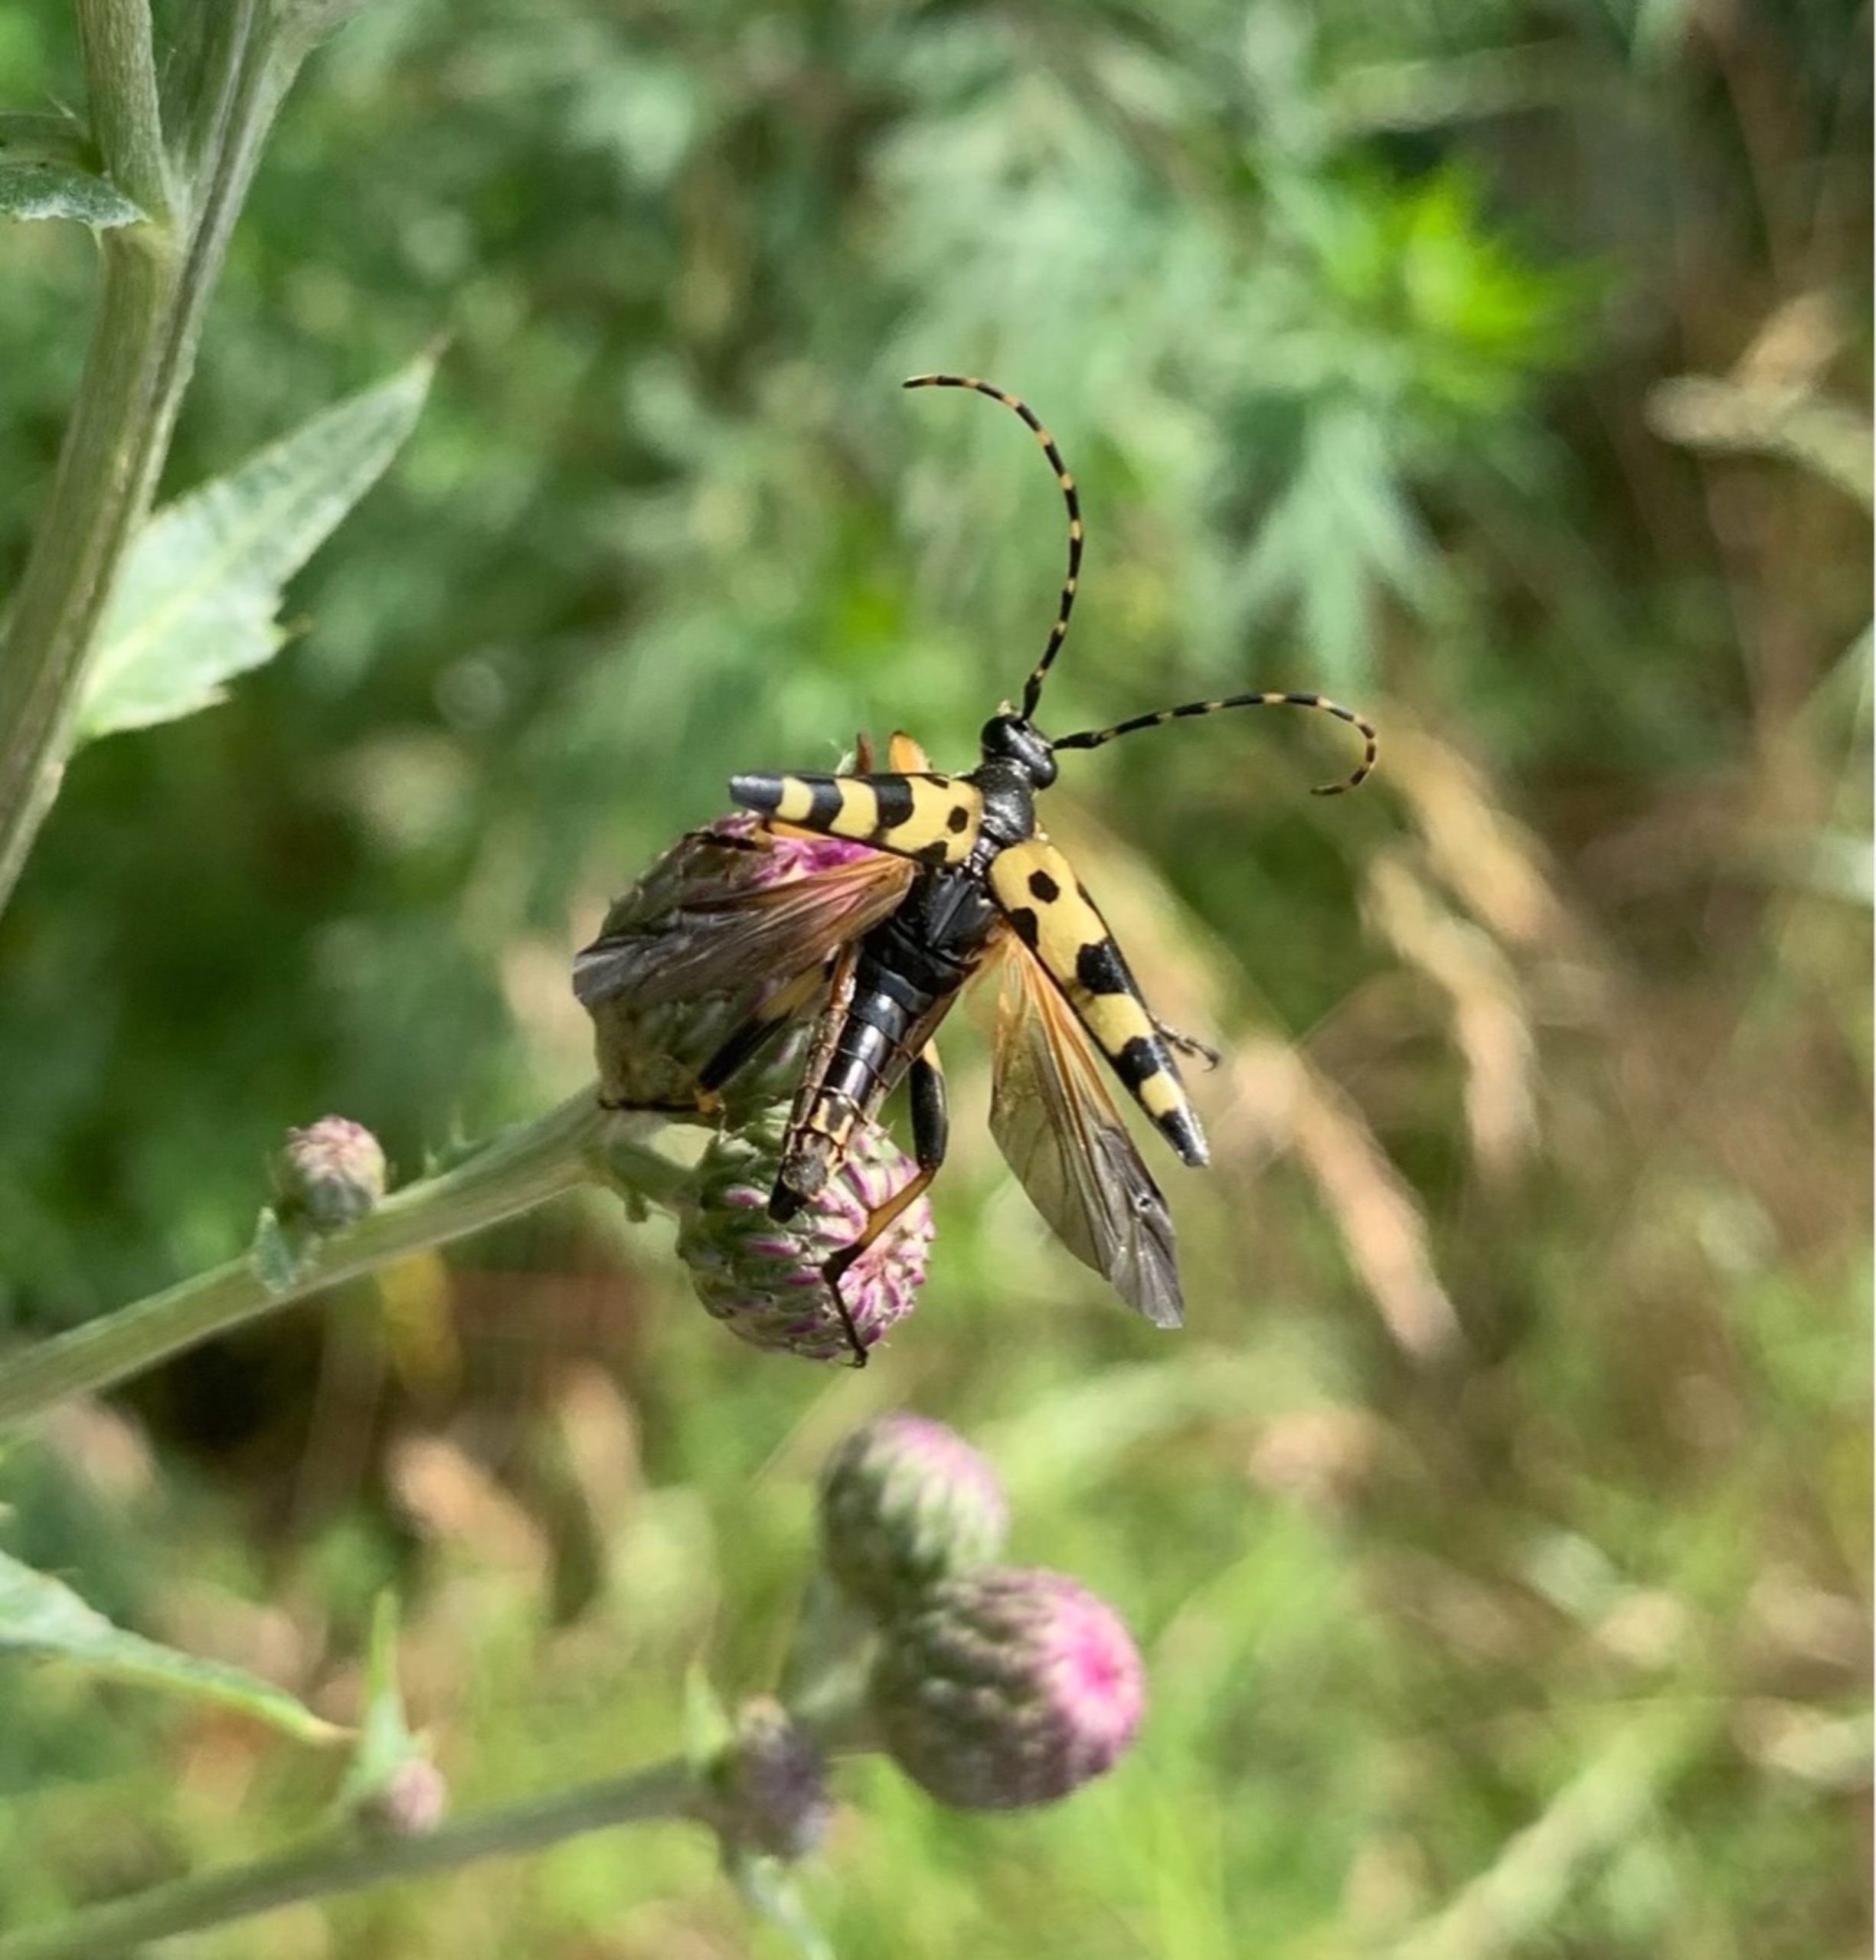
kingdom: Animalia
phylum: Arthropoda
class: Insecta
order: Coleoptera
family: Cerambycidae
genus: Rutpela
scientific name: Rutpela maculata
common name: Sydlig blomsterbuk
